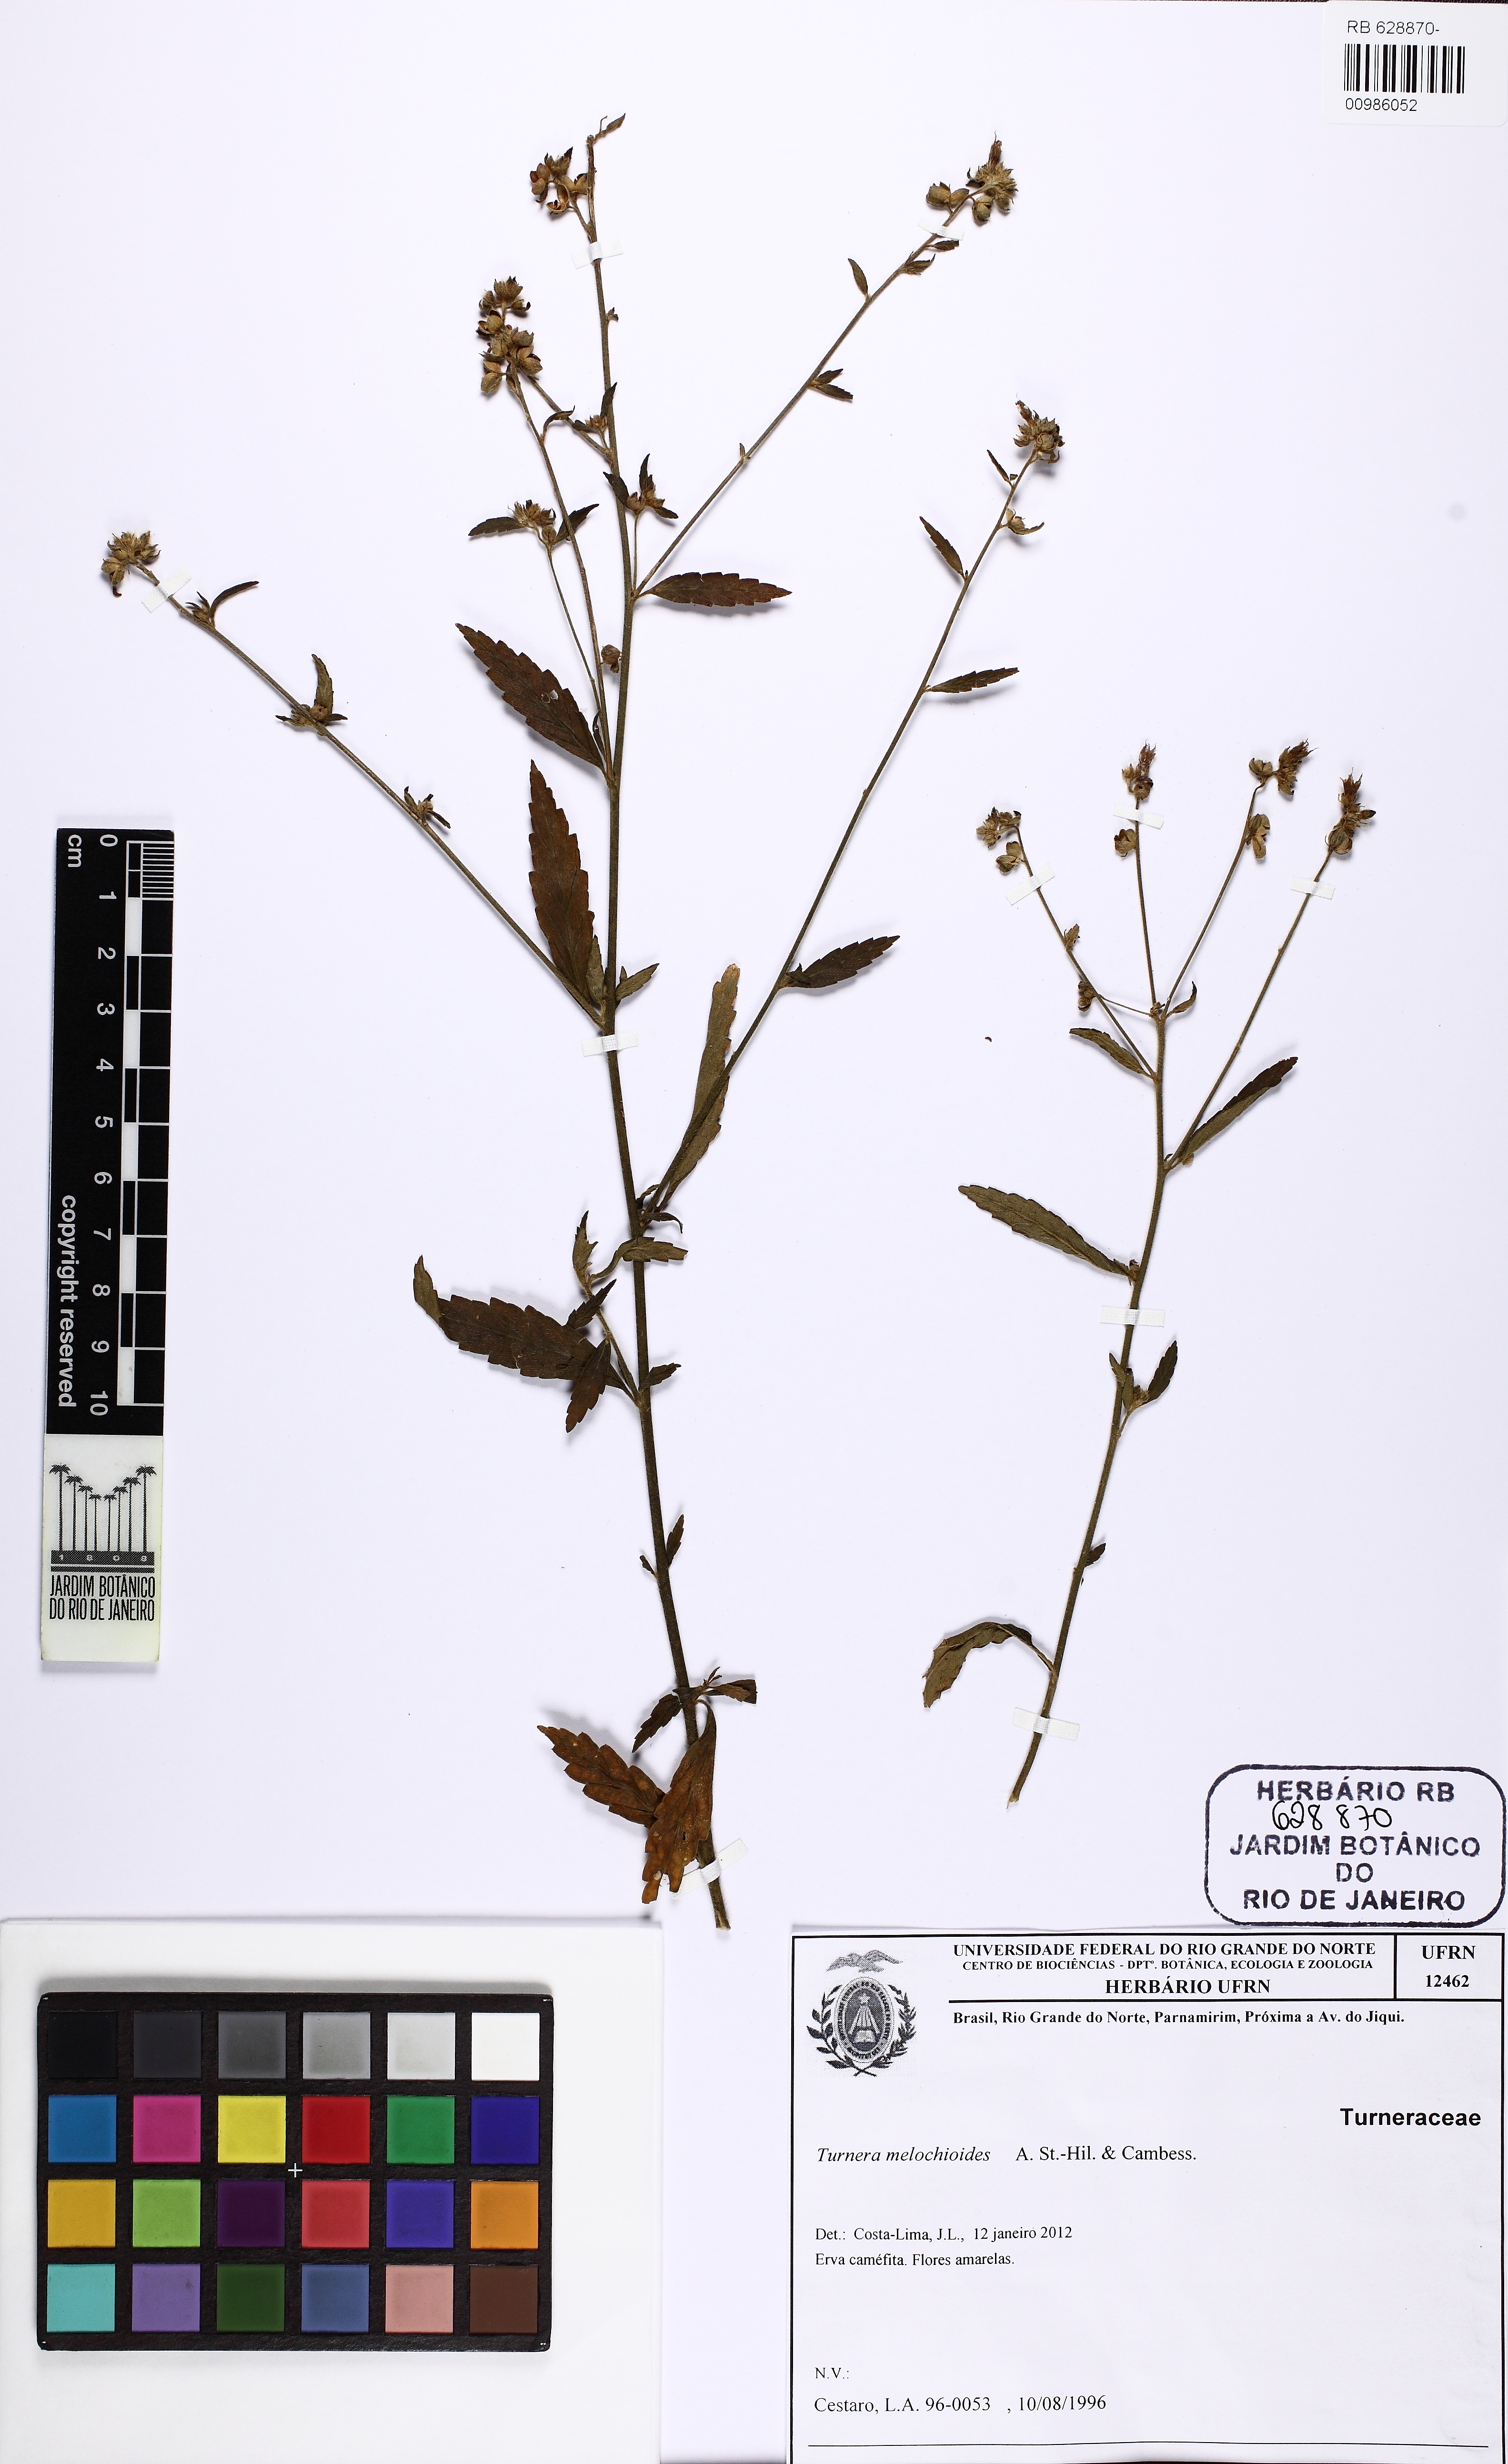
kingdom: Plantae
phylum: Tracheophyta
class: Magnoliopsida
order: Malpighiales
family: Turneraceae
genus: Turnera
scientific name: Turnera melochioides
